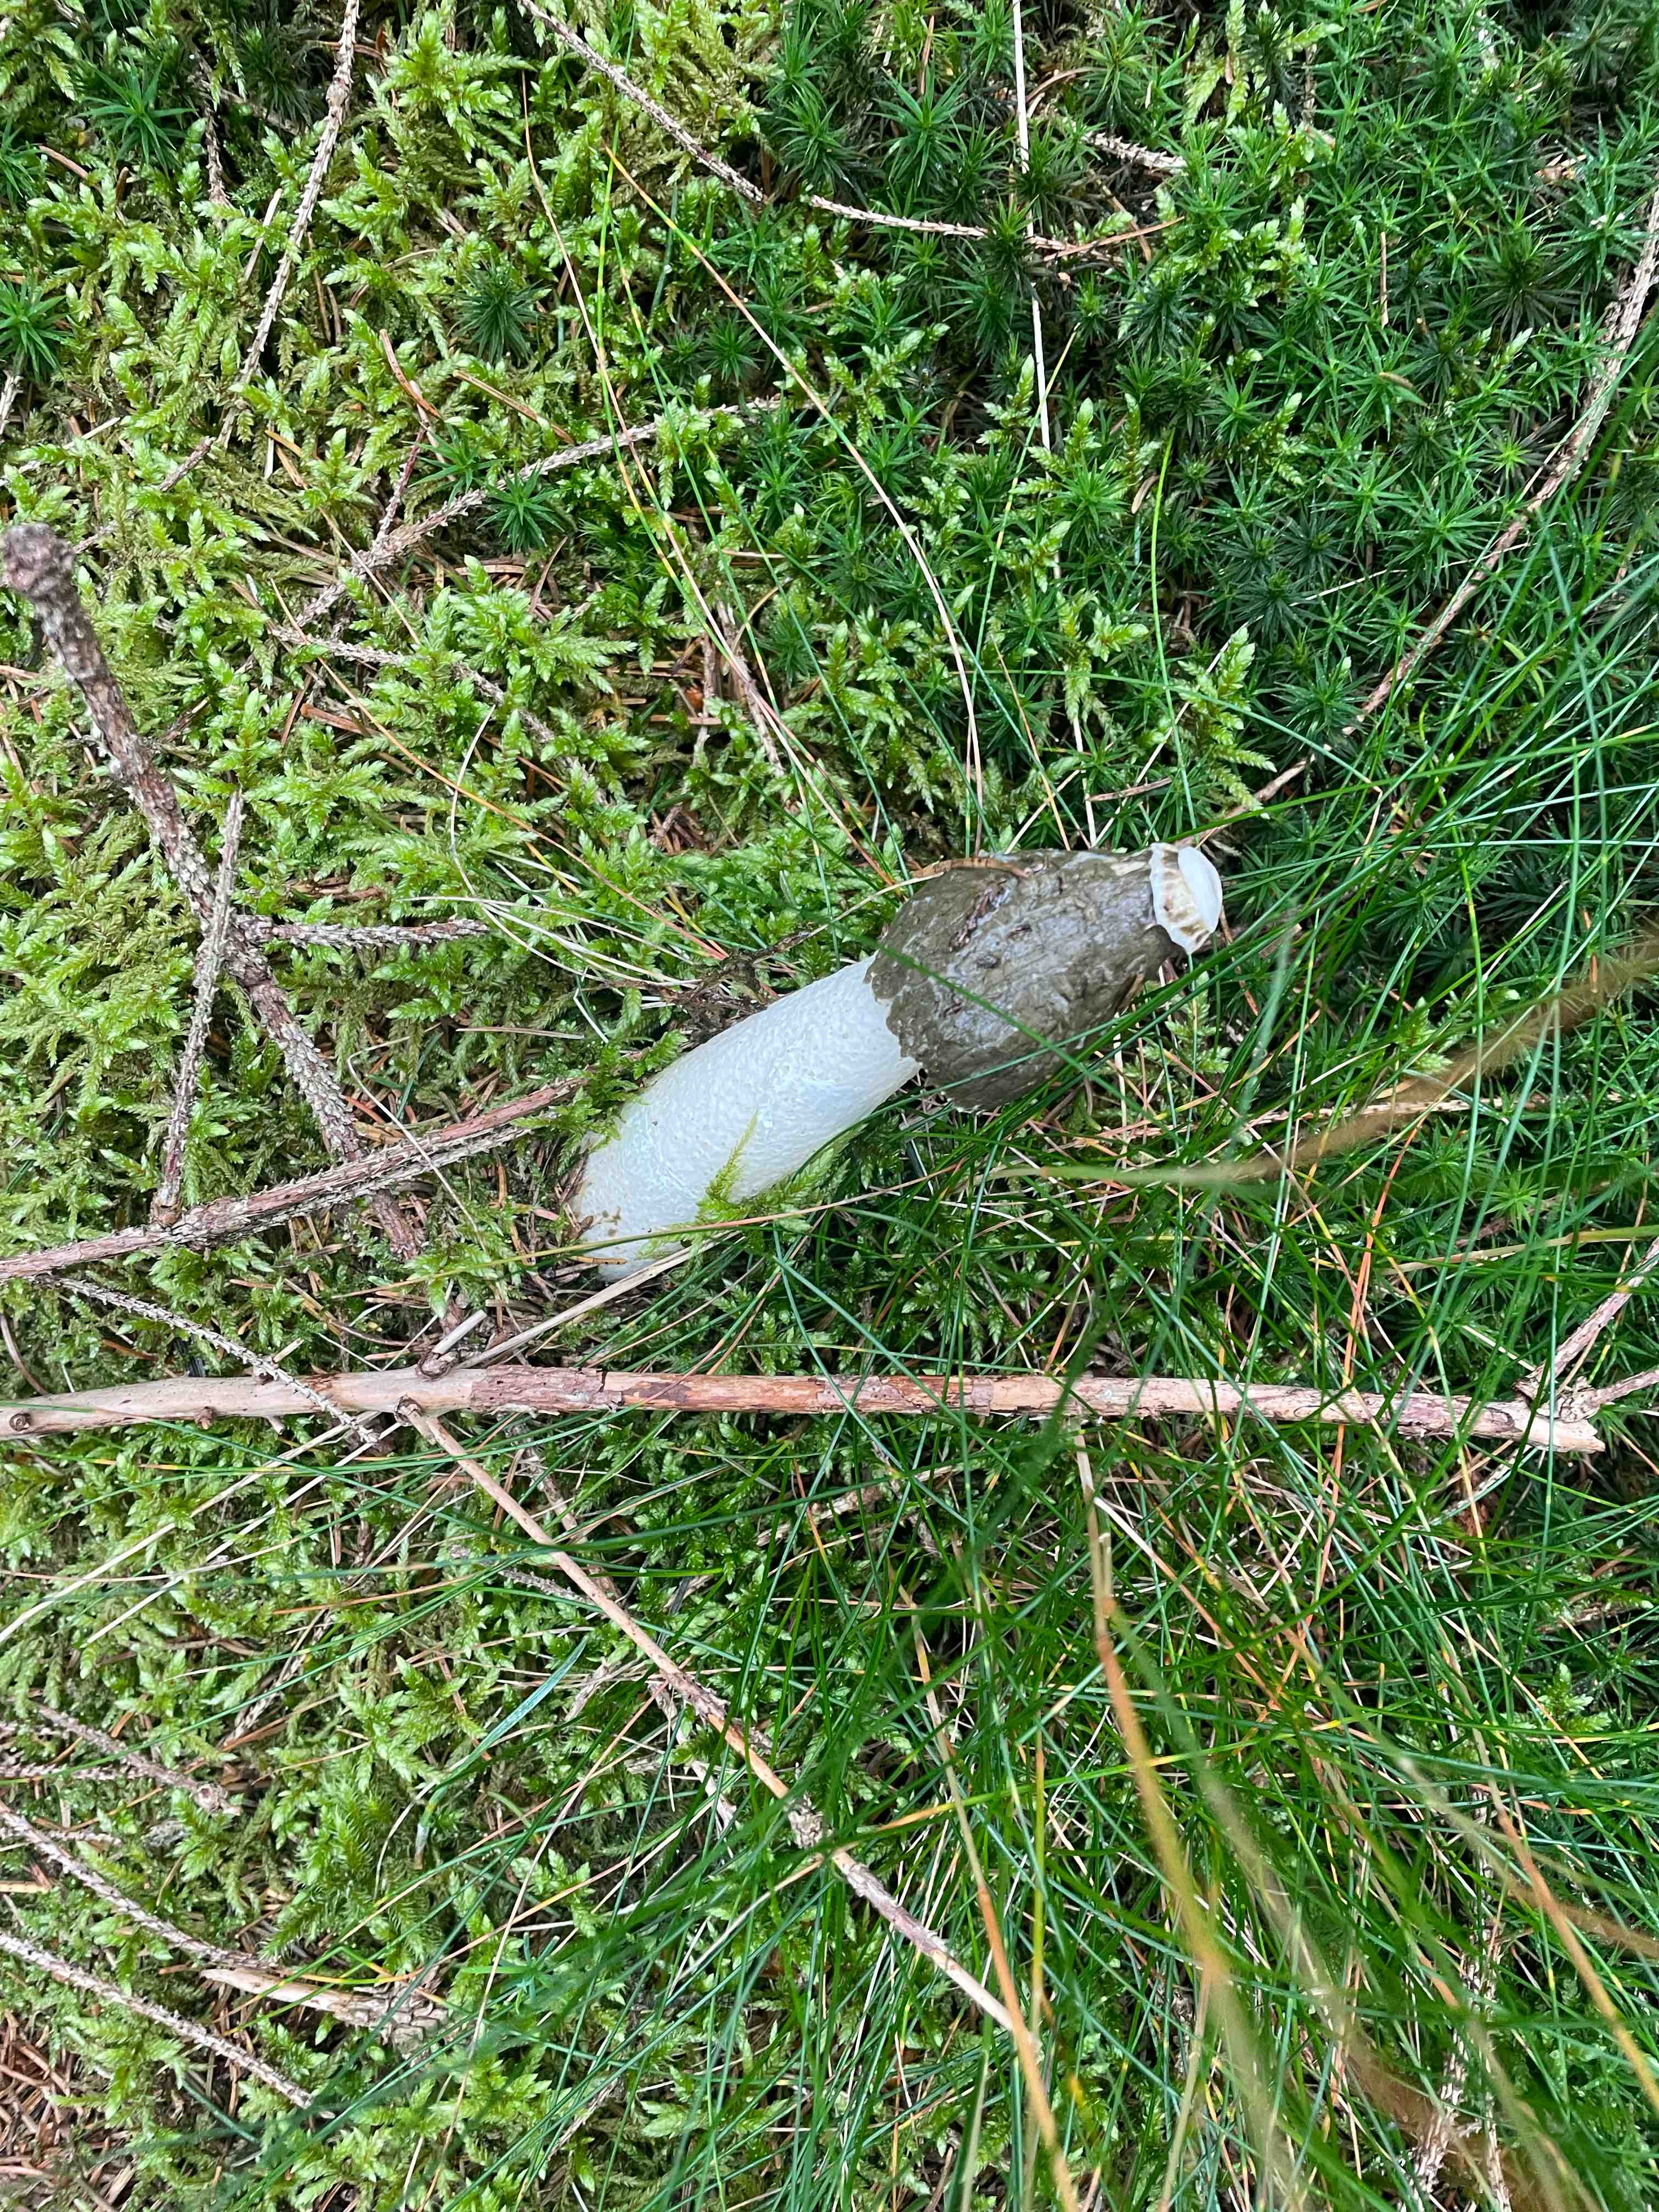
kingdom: Fungi
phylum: Basidiomycota
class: Agaricomycetes
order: Phallales
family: Phallaceae
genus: Phallus
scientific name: Phallus impudicus
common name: almindelig stinksvamp
